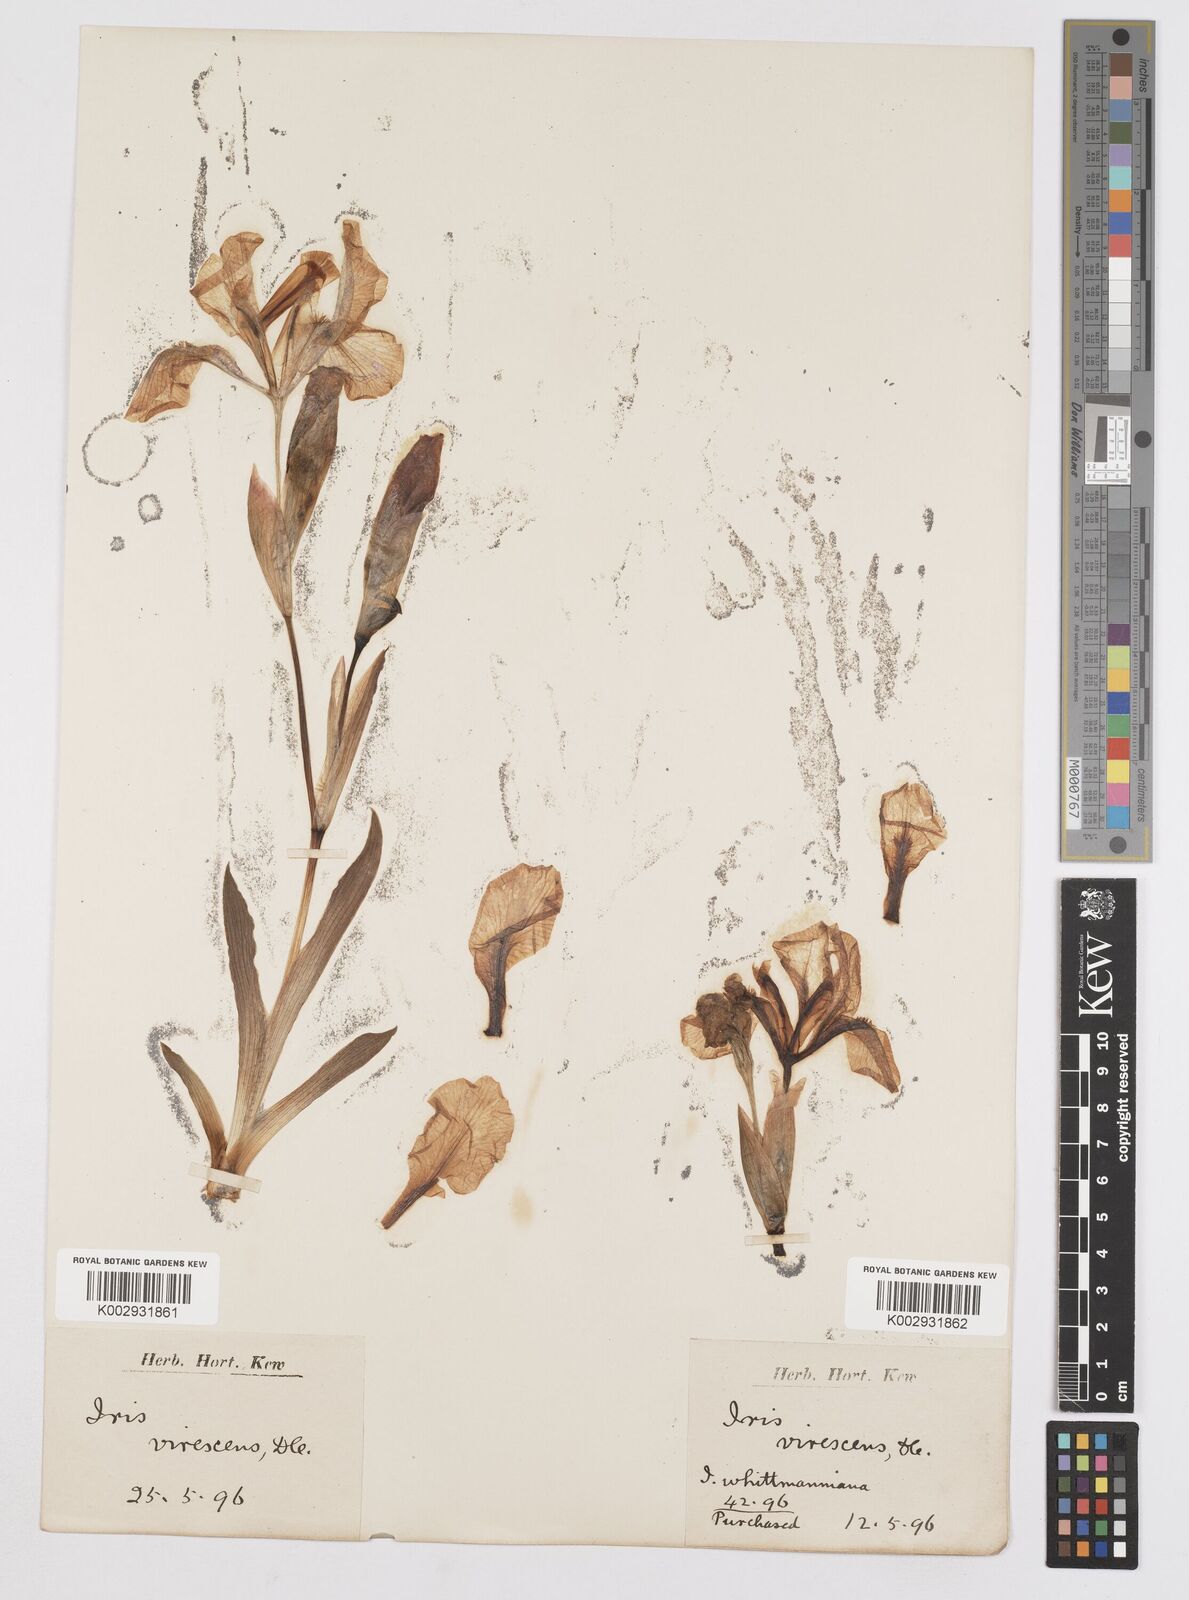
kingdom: Plantae
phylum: Tracheophyta
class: Liliopsida
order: Asparagales
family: Iridaceae
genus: Iris
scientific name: Iris lutescens
